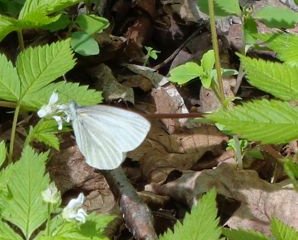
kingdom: Animalia
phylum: Arthropoda
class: Insecta
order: Lepidoptera
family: Pieridae
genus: Pieris
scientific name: Pieris virginiensis
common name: West Virginia White
